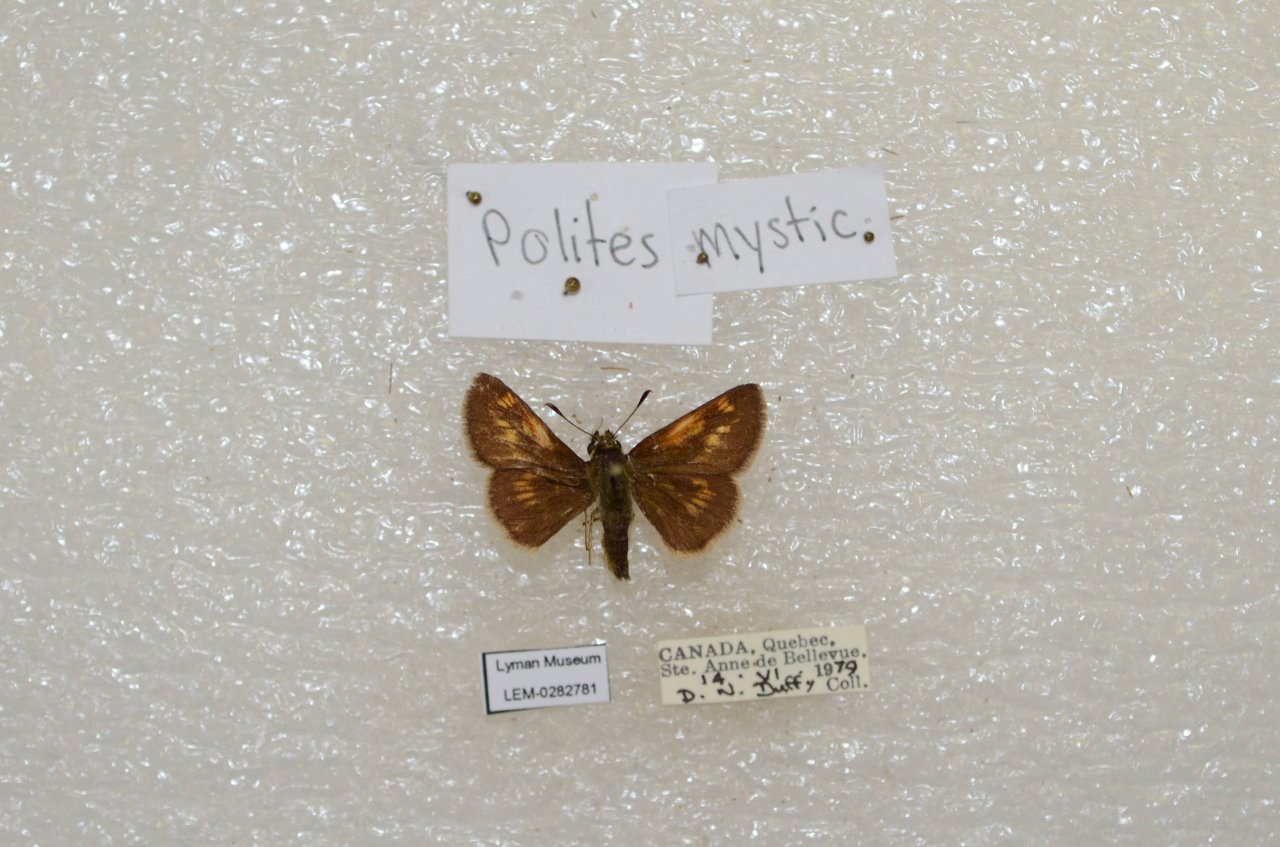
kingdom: Animalia
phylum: Arthropoda
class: Insecta
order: Lepidoptera
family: Hesperiidae
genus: Polites
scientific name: Polites
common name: Long Dash Skipper
